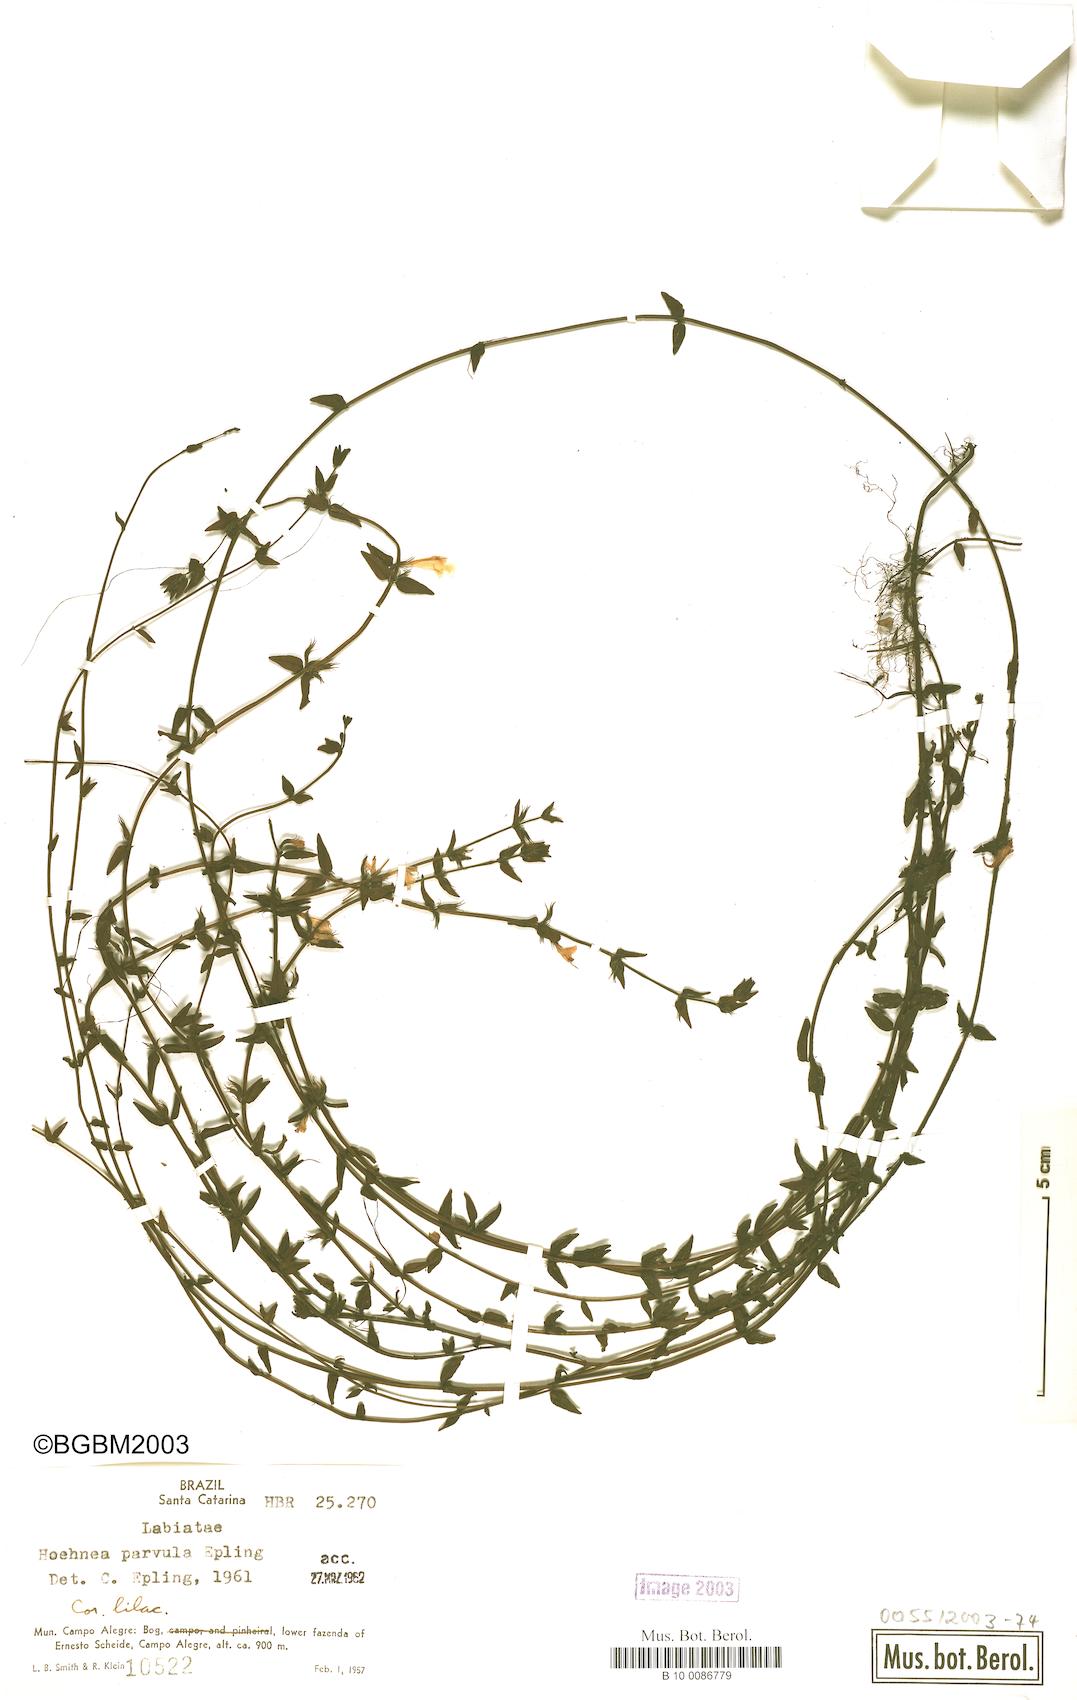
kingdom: Plantae
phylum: Tracheophyta
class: Magnoliopsida
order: Lamiales
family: Lamiaceae
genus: Hoehnea
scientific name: Hoehnea parvula
